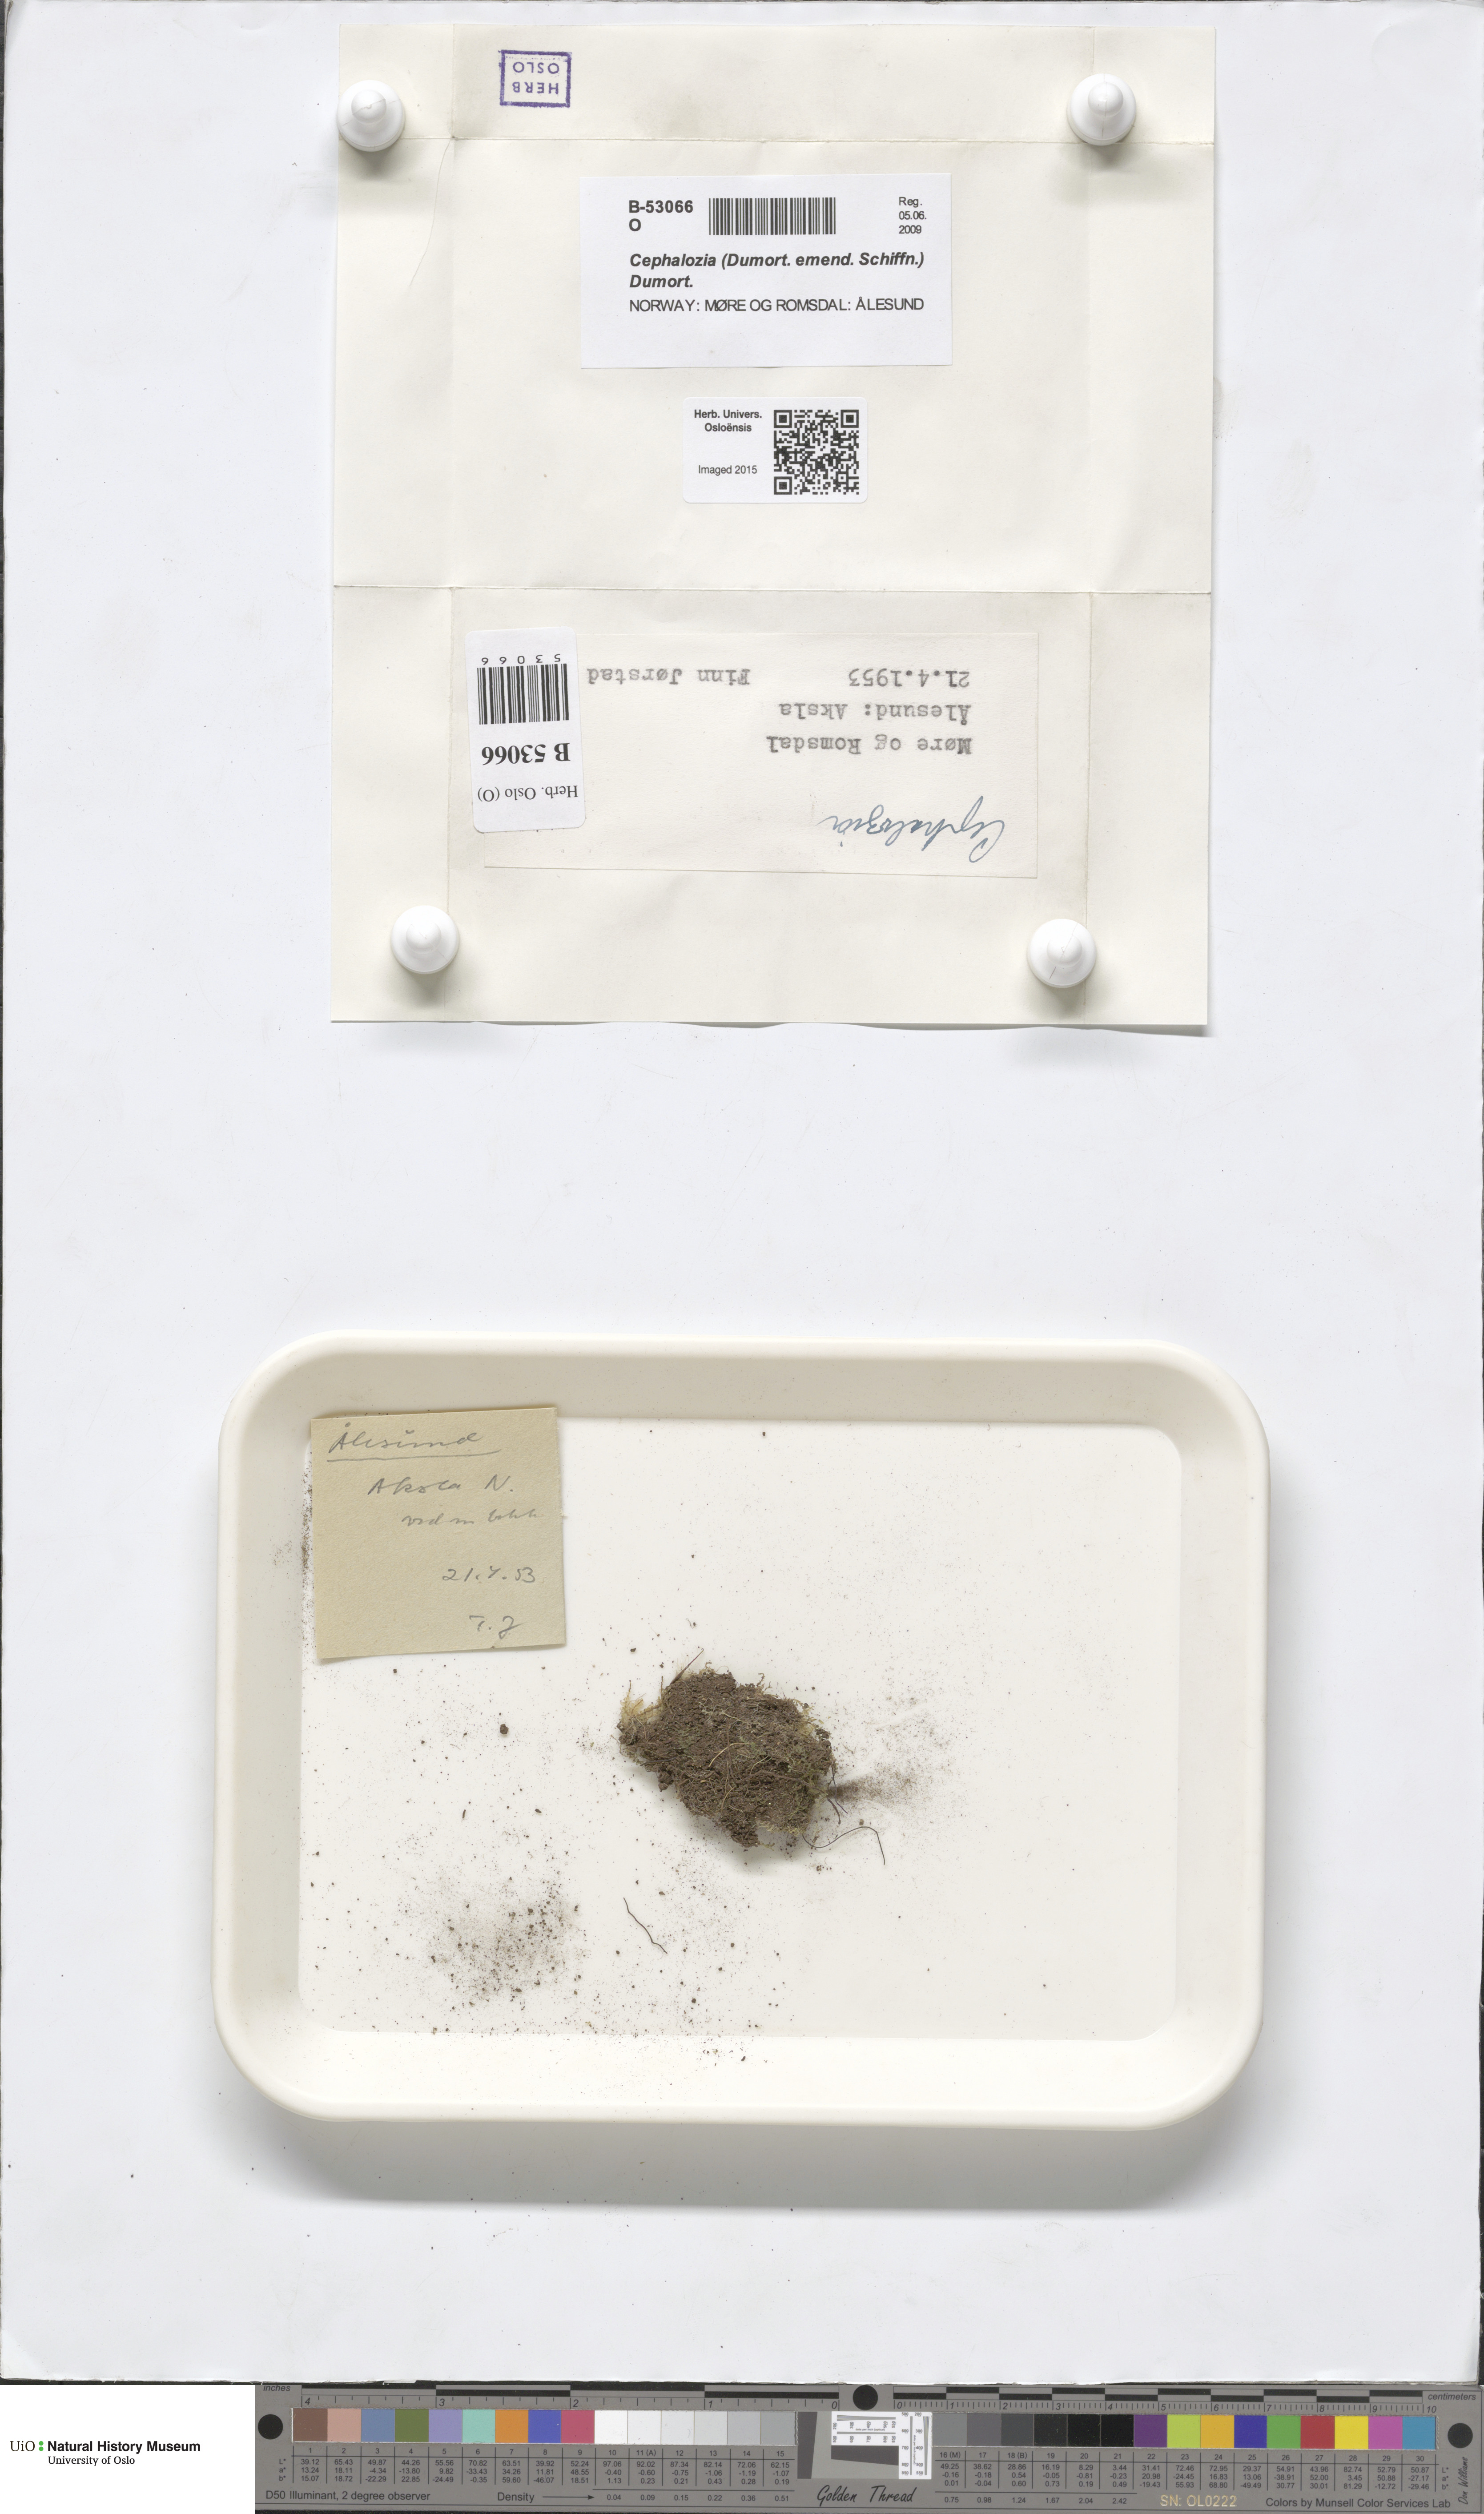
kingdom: Plantae
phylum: Marchantiophyta
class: Jungermanniopsida
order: Jungermanniales
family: Cephaloziaceae
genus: Cephalozia
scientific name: Cephalozia
